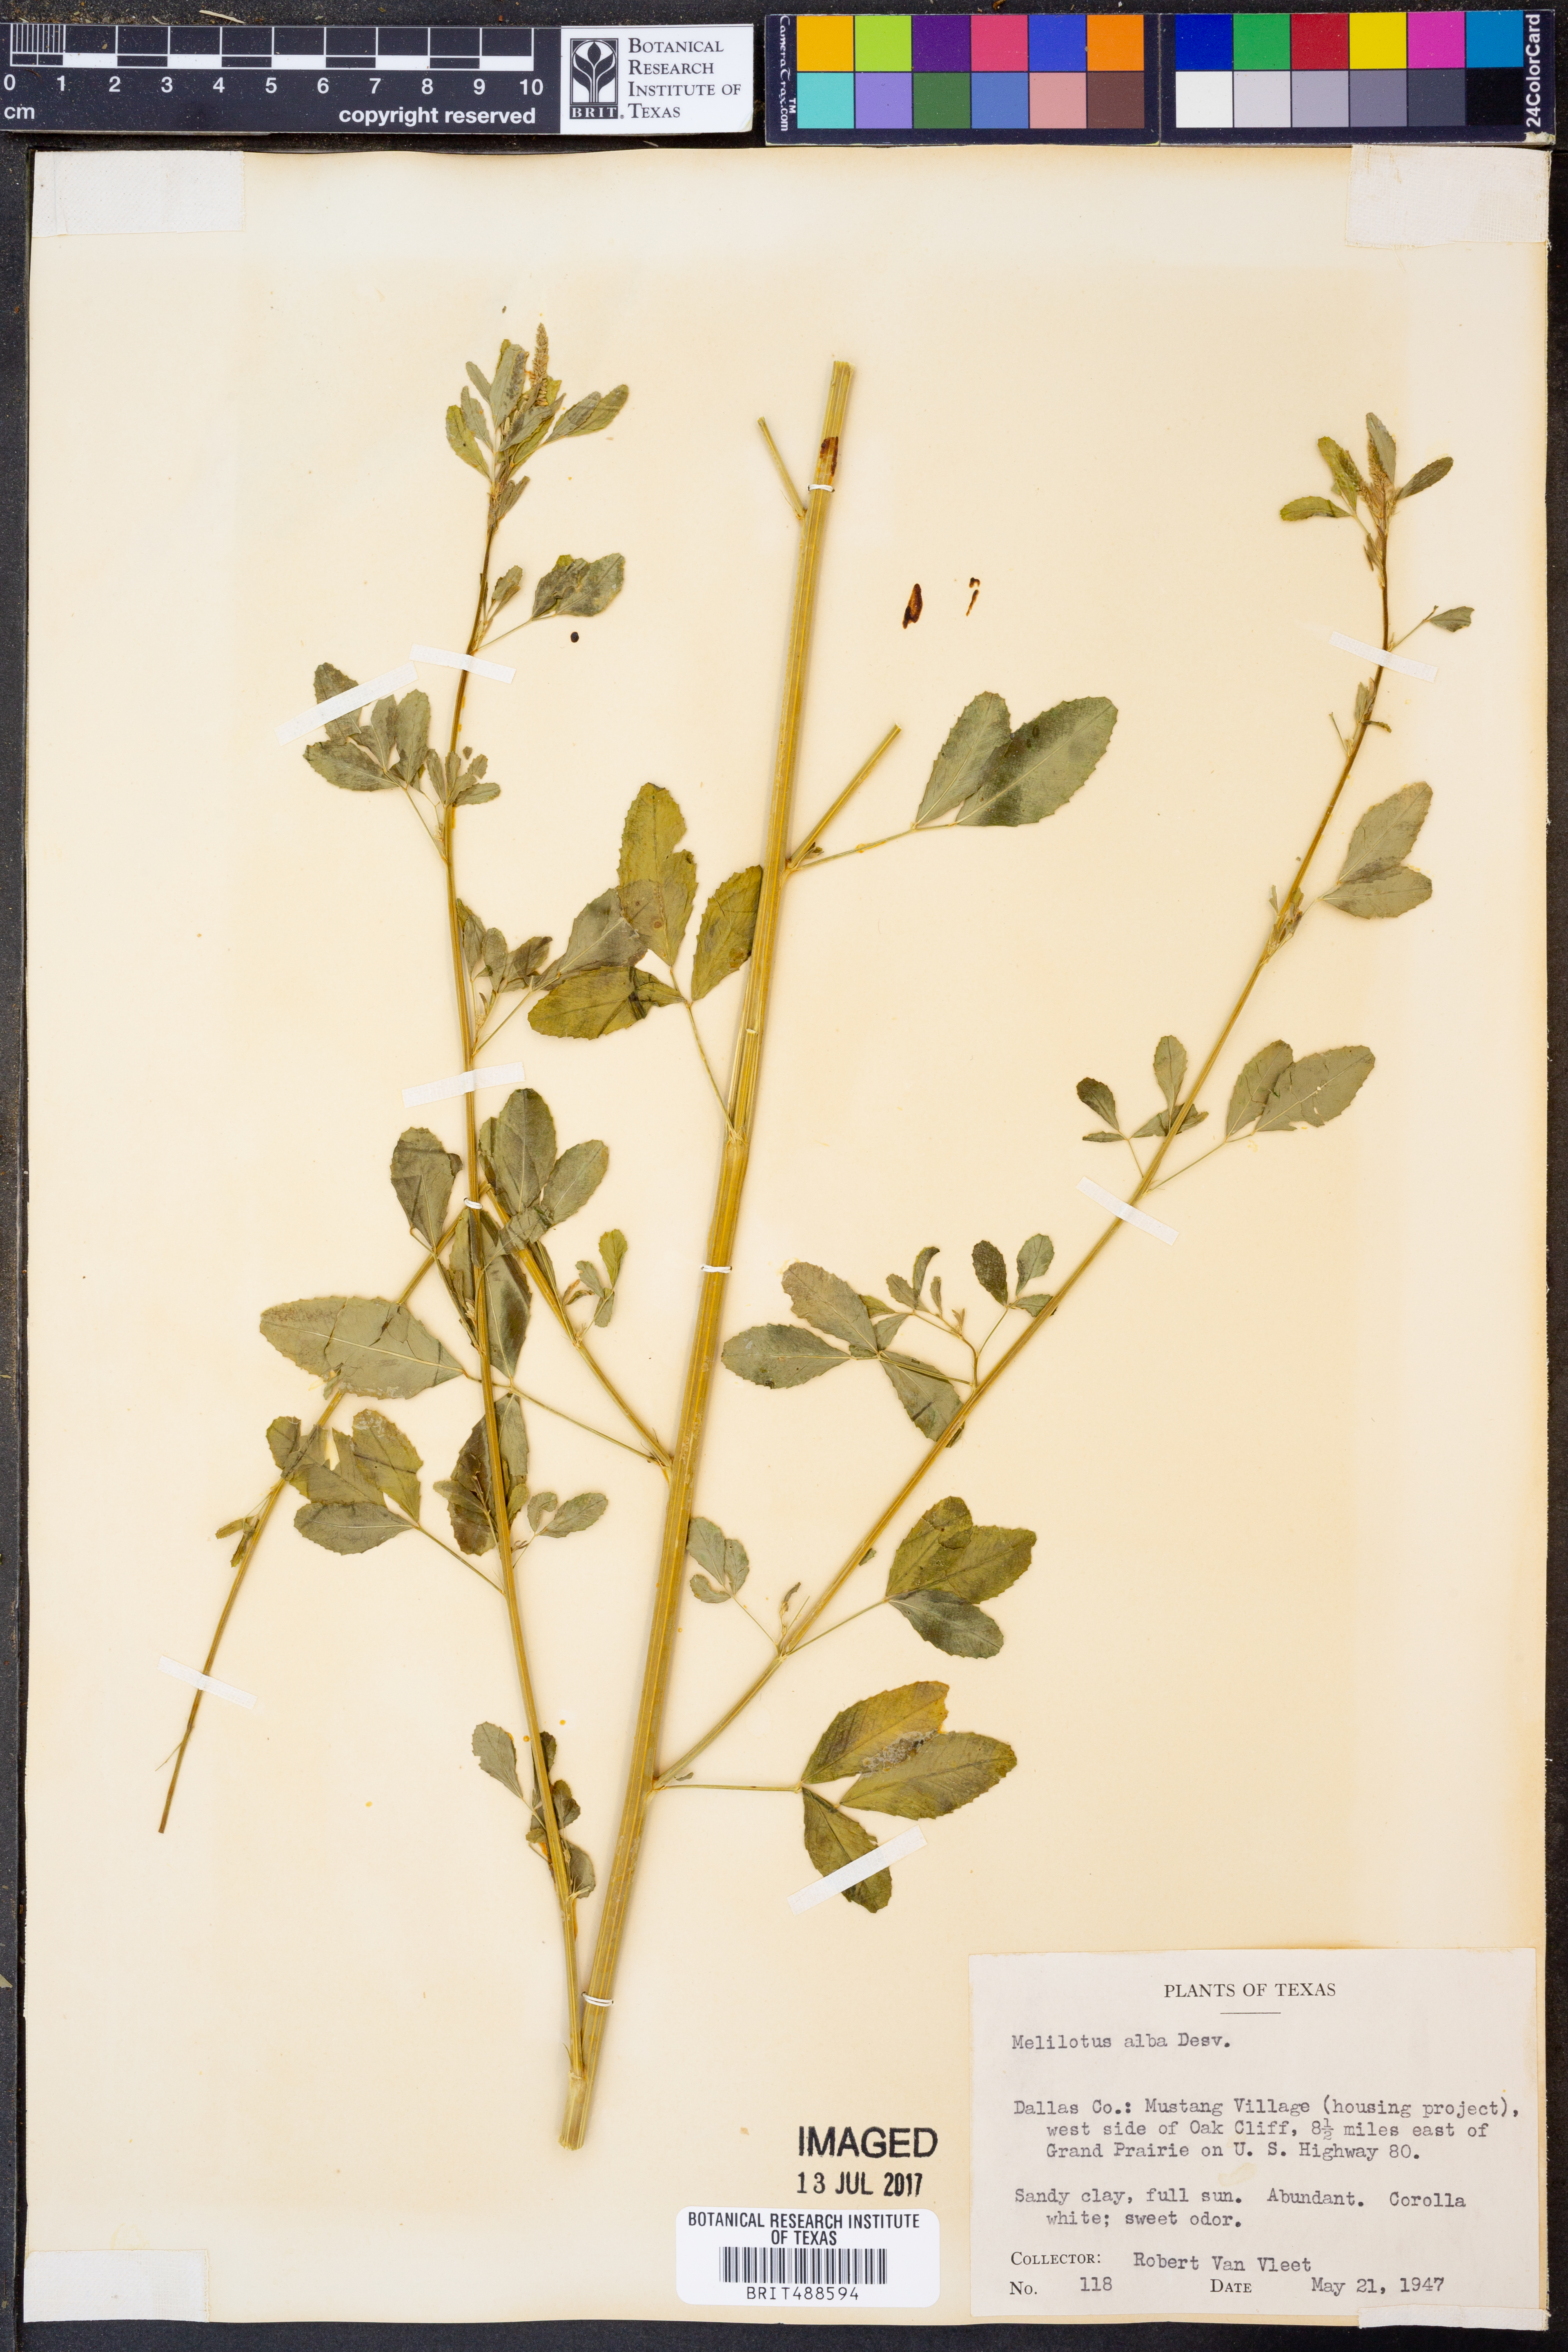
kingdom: Plantae
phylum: Tracheophyta
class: Magnoliopsida
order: Fabales
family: Fabaceae
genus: Melilotus
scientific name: Melilotus albus
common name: White melilot
